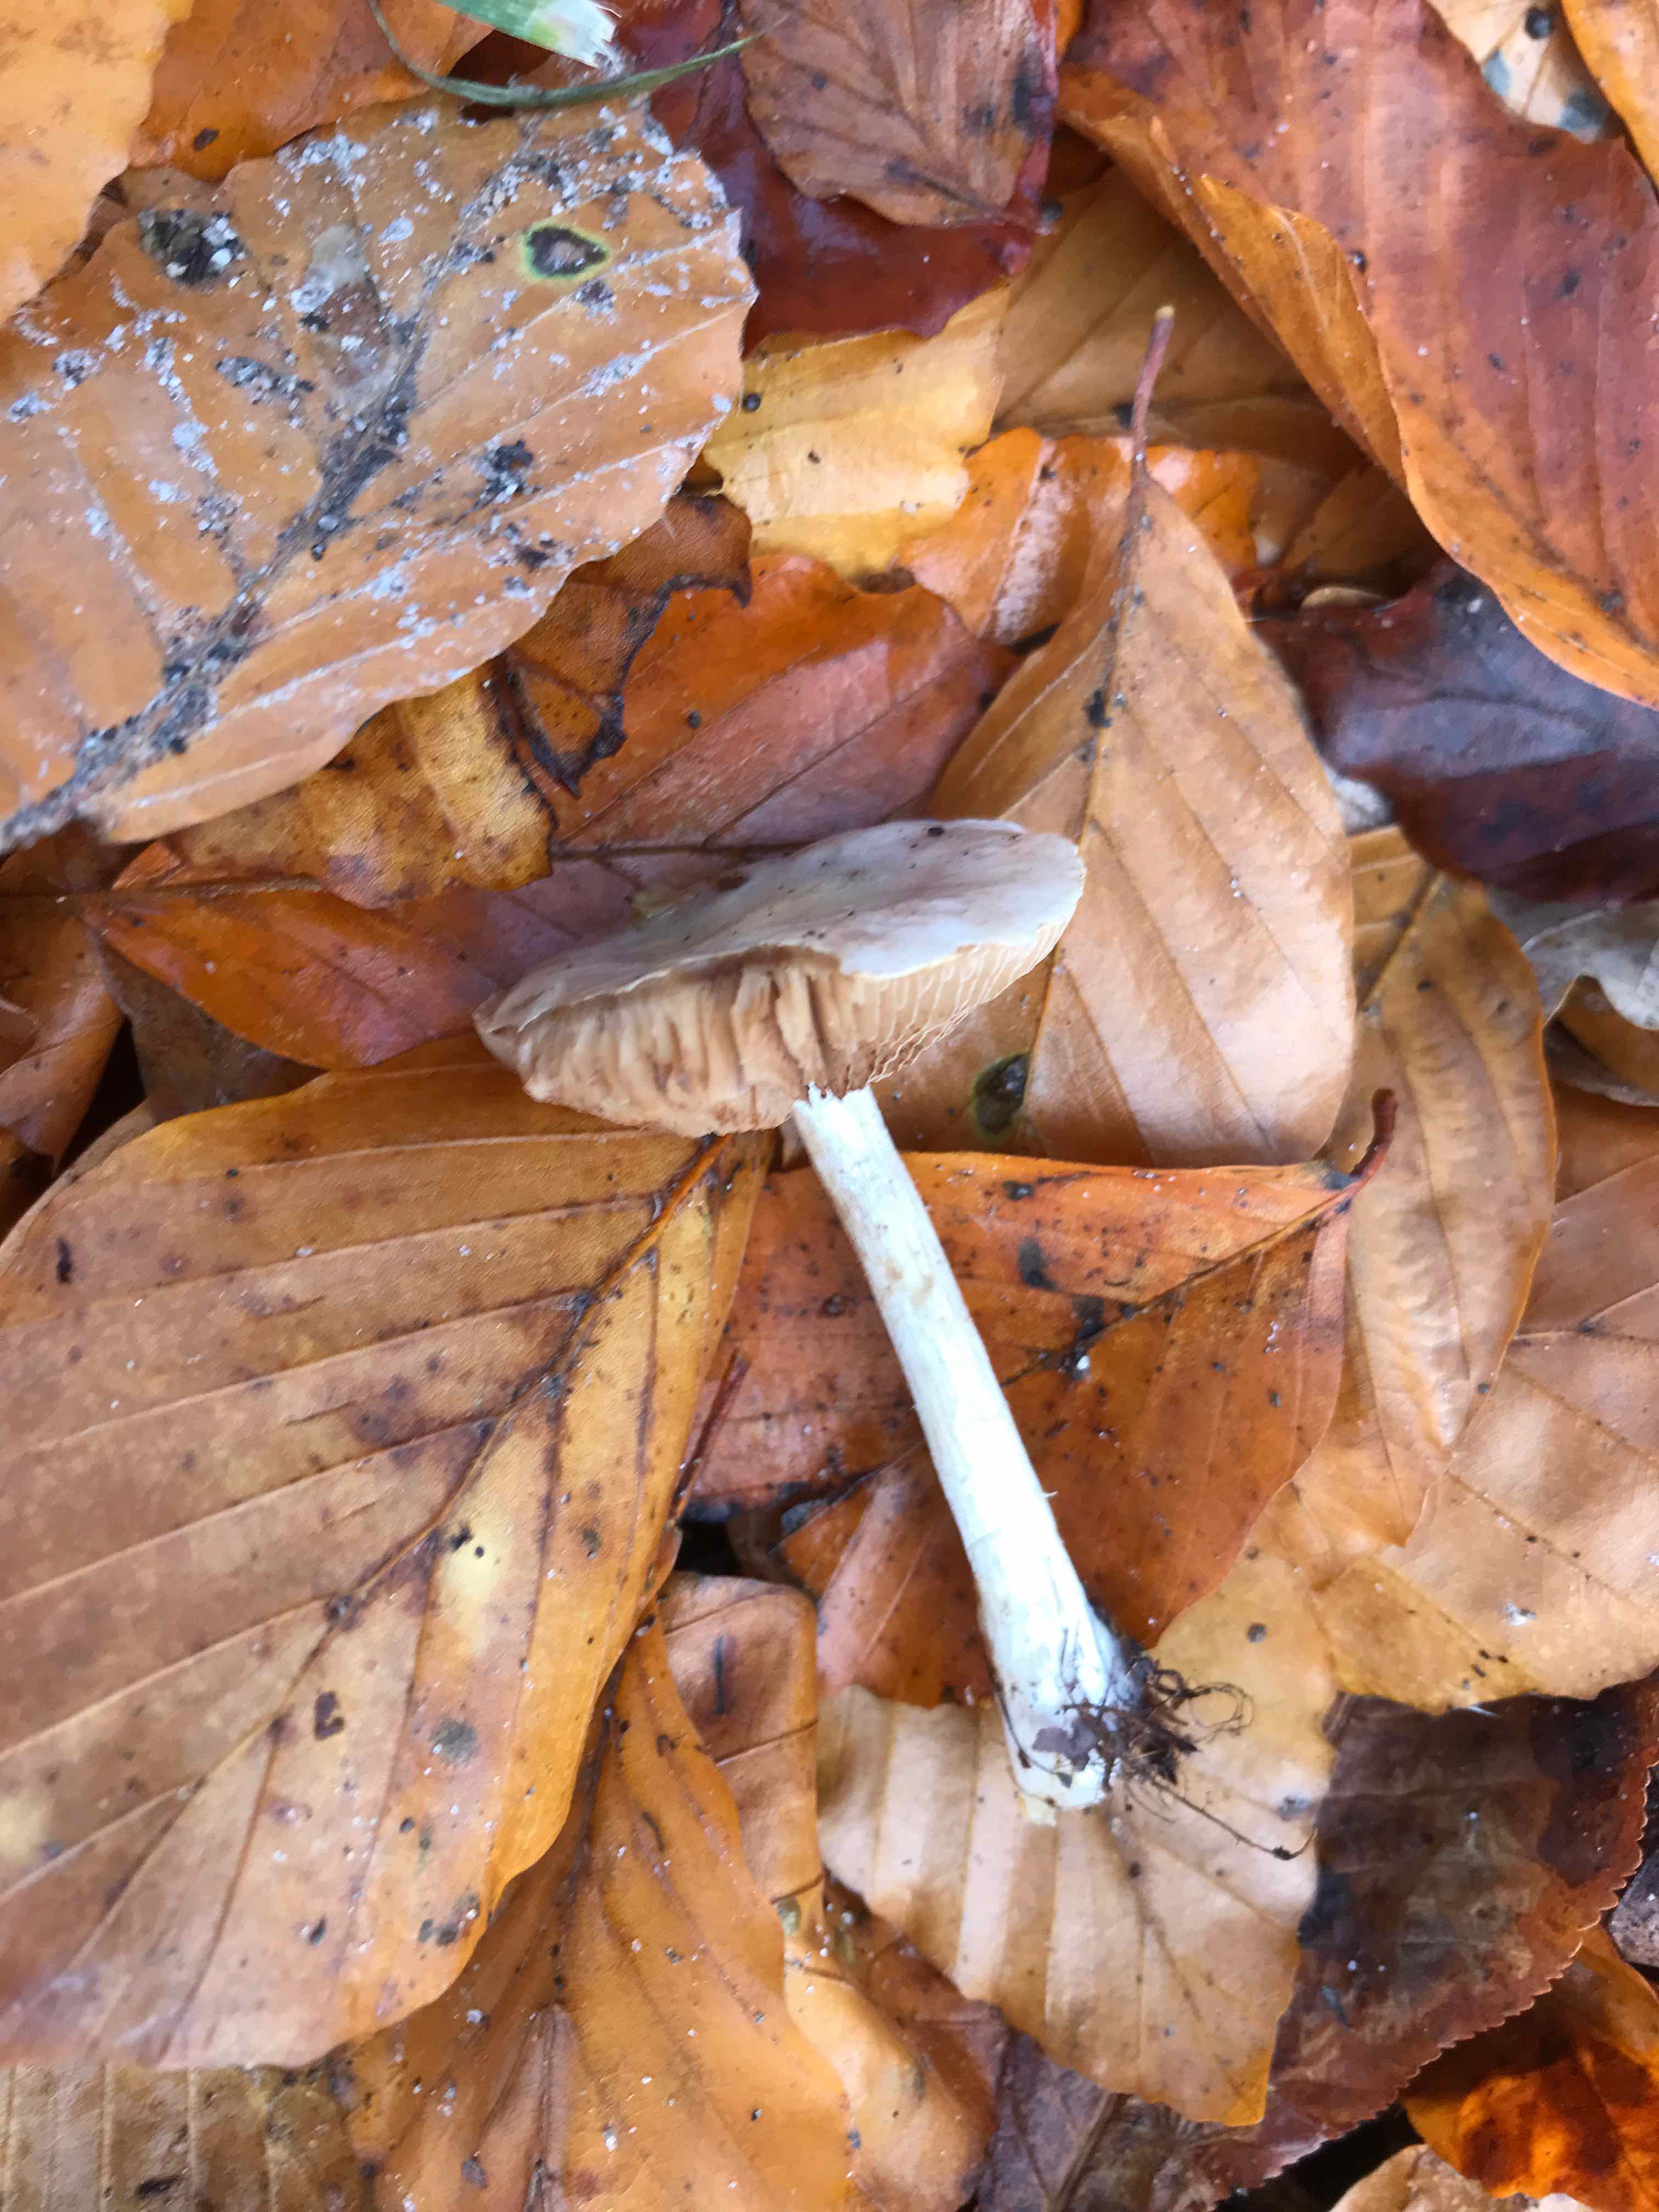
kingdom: Fungi
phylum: Basidiomycota
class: Agaricomycetes
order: Agaricales
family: Strophariaceae
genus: Stropharia
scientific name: Stropharia cyanea
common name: blågrøn bredblad
